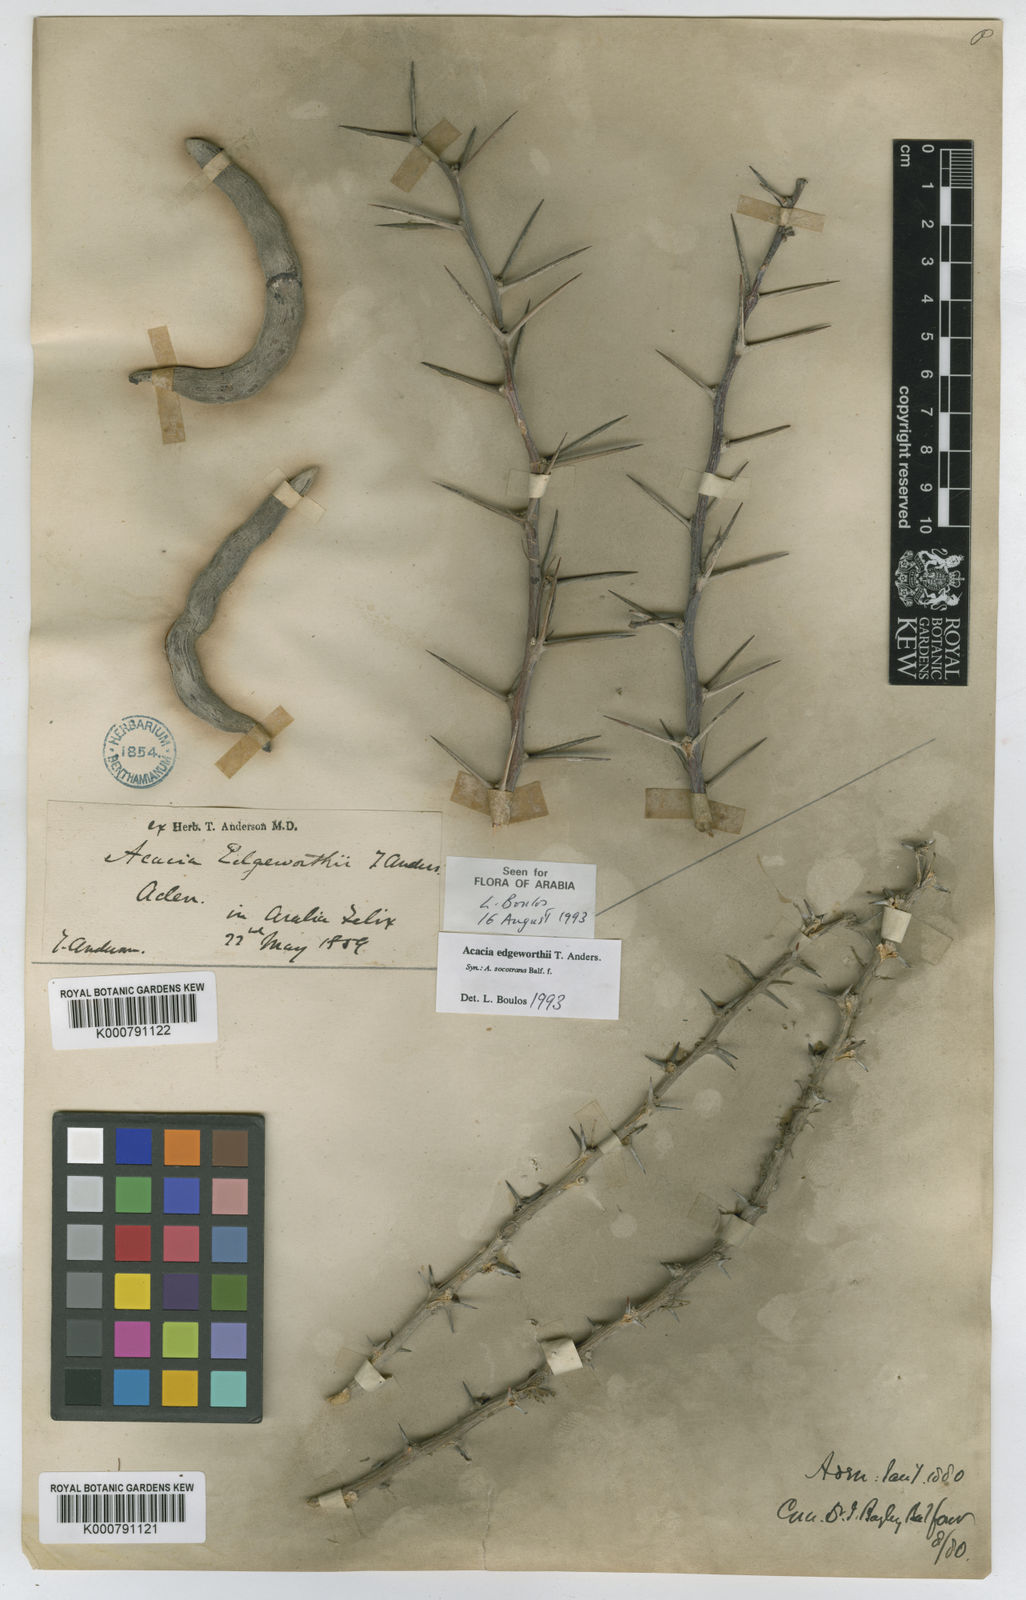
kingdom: Plantae
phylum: Tracheophyta
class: Magnoliopsida
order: Fabales
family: Fabaceae
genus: Vachellia
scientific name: Vachellia edgeworthii
